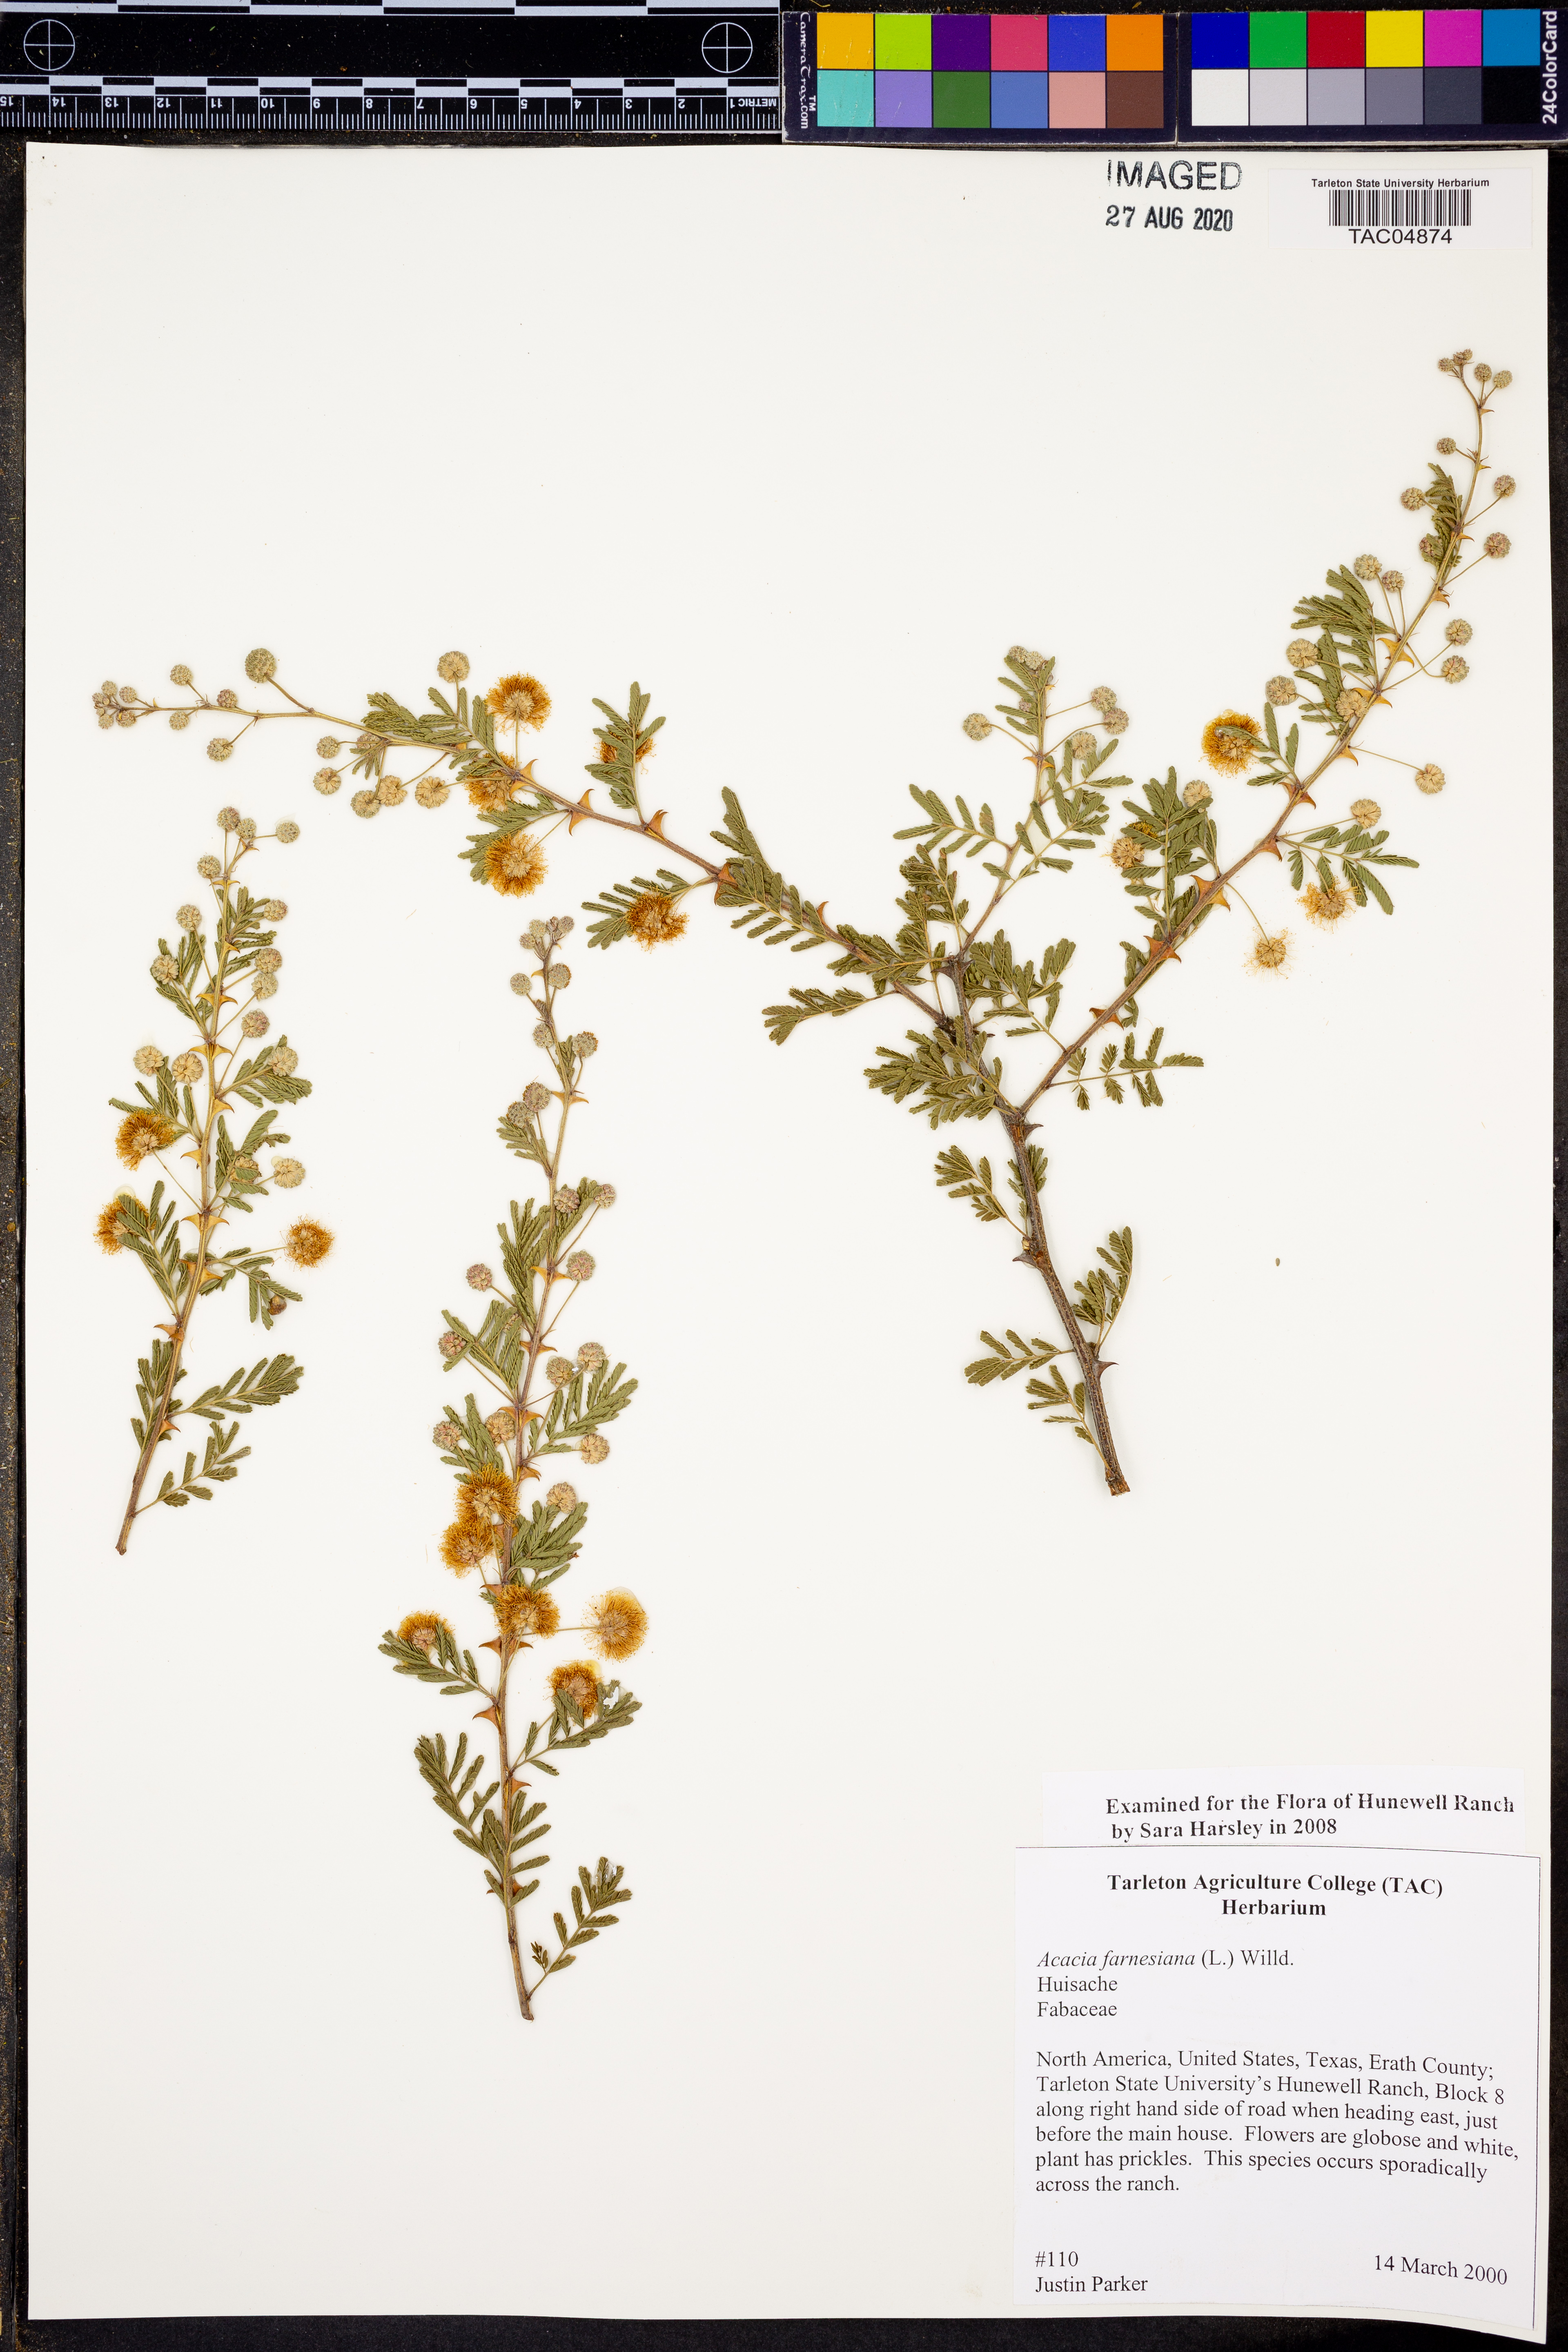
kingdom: Plantae
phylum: Tracheophyta
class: Magnoliopsida
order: Fabales
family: Fabaceae
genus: Vachellia
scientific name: Vachellia farnesiana
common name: Sweet acacia
